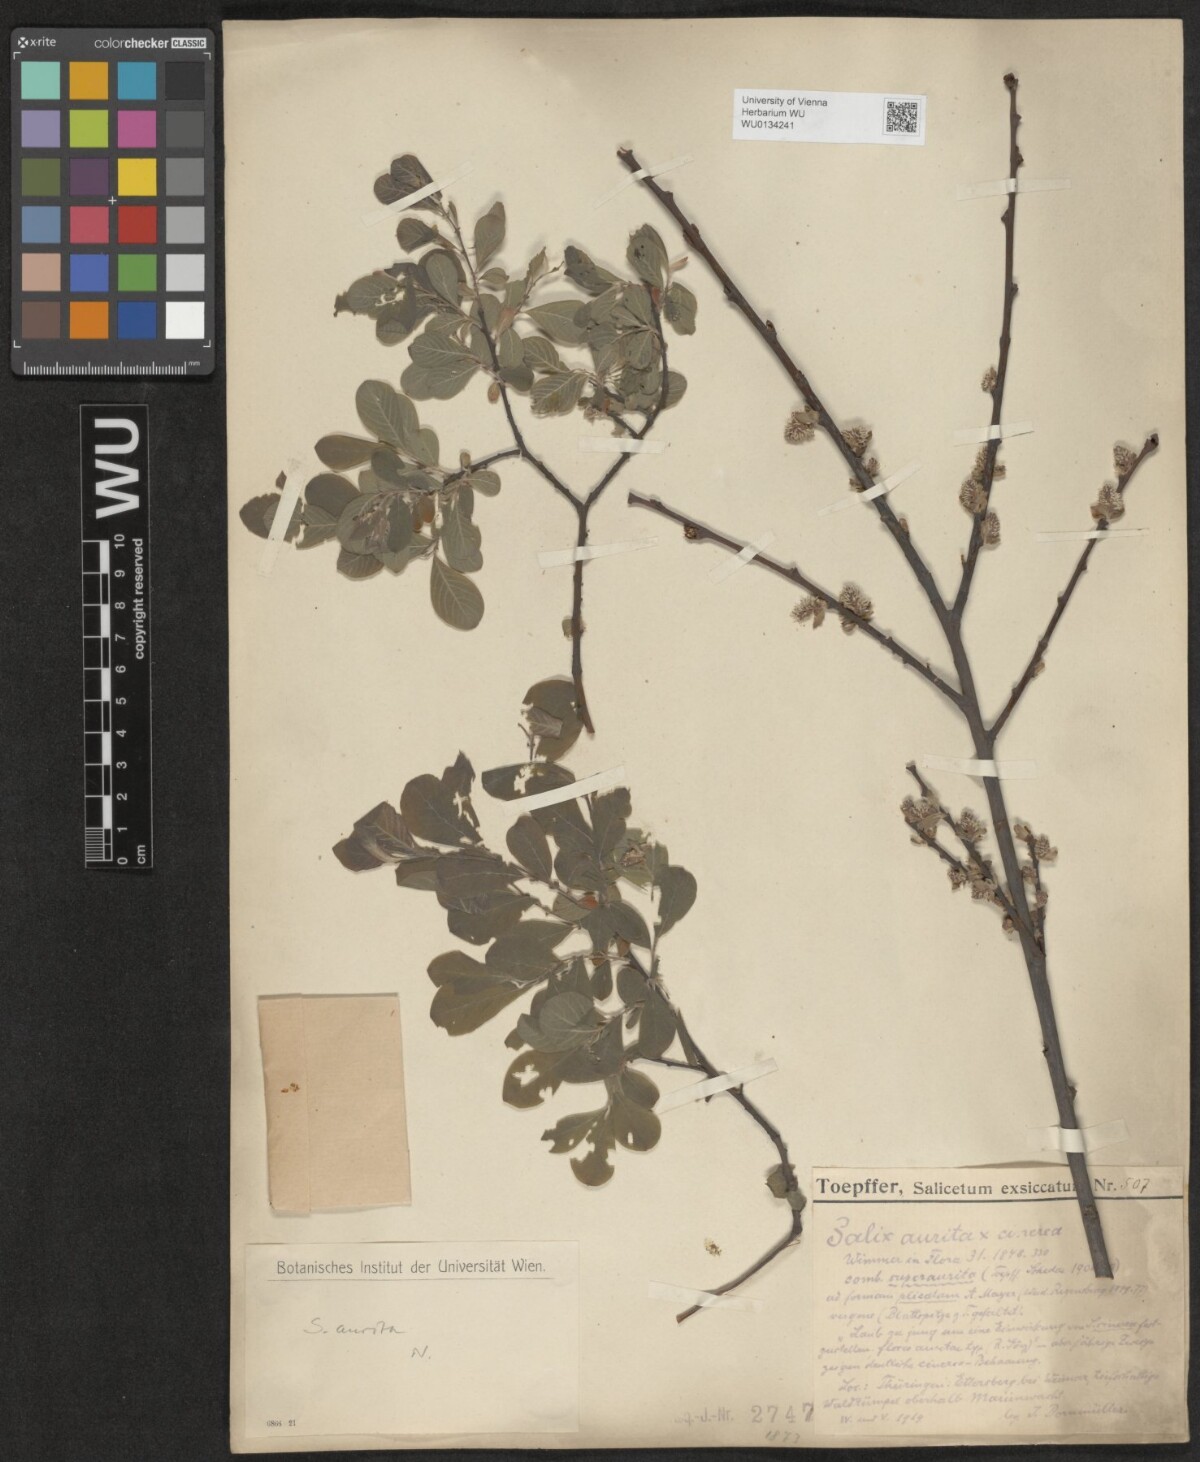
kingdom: Plantae
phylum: Tracheophyta
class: Magnoliopsida
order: Malpighiales
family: Salicaceae
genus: Salix
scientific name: Salix aurita
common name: Eared willow
